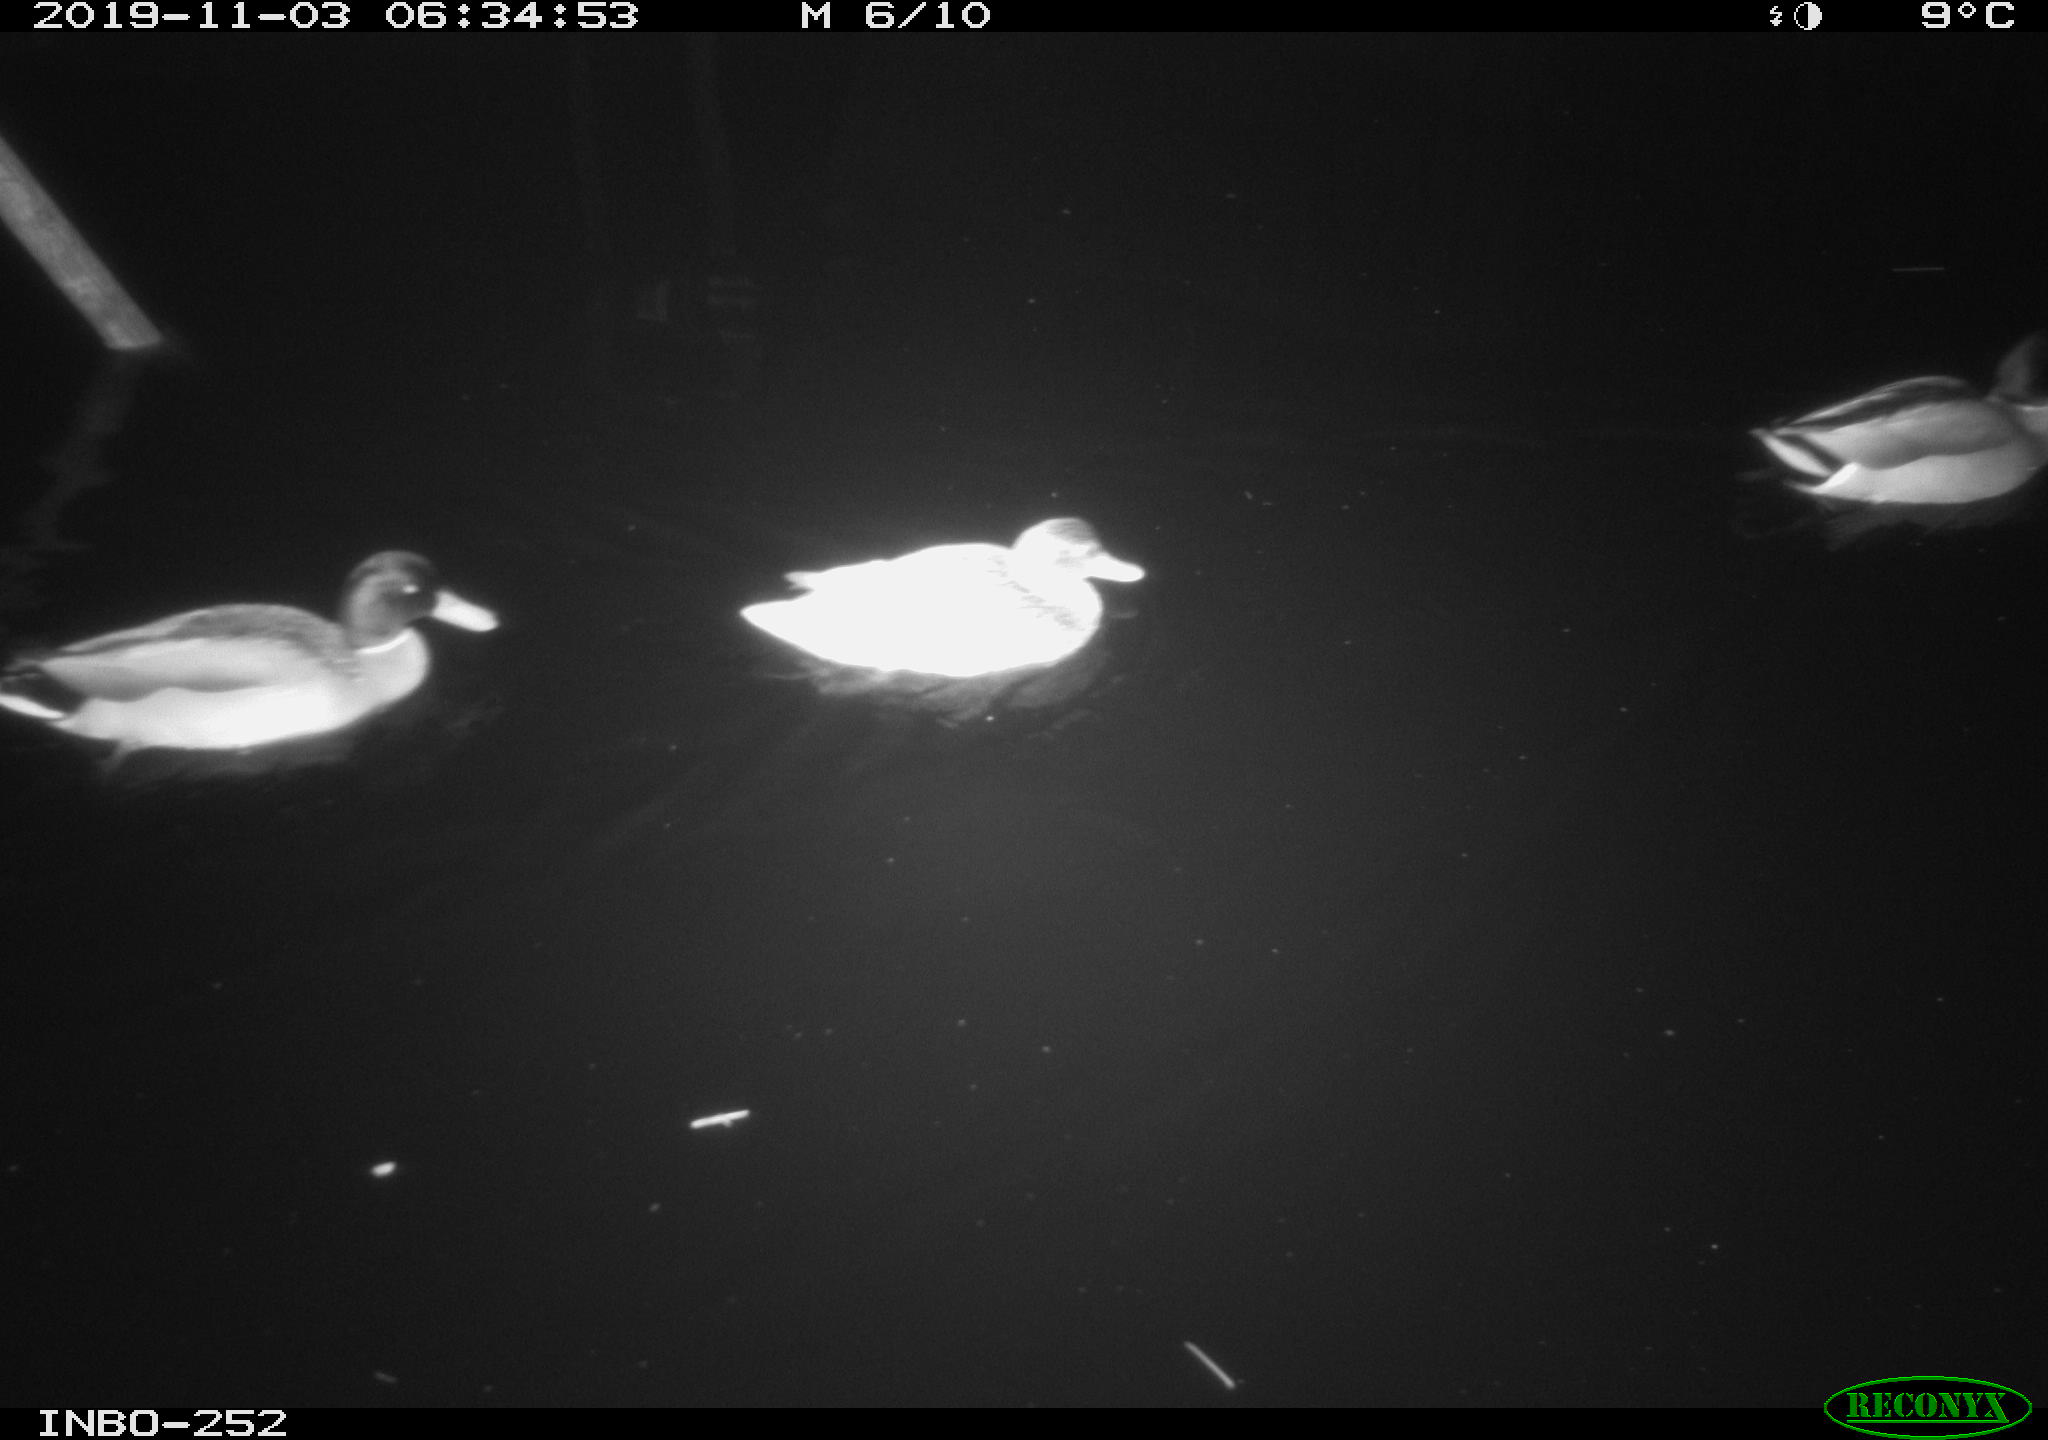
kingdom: Animalia
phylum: Chordata
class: Aves
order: Anseriformes
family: Anatidae
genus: Anas
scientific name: Anas platyrhynchos
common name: Mallard
